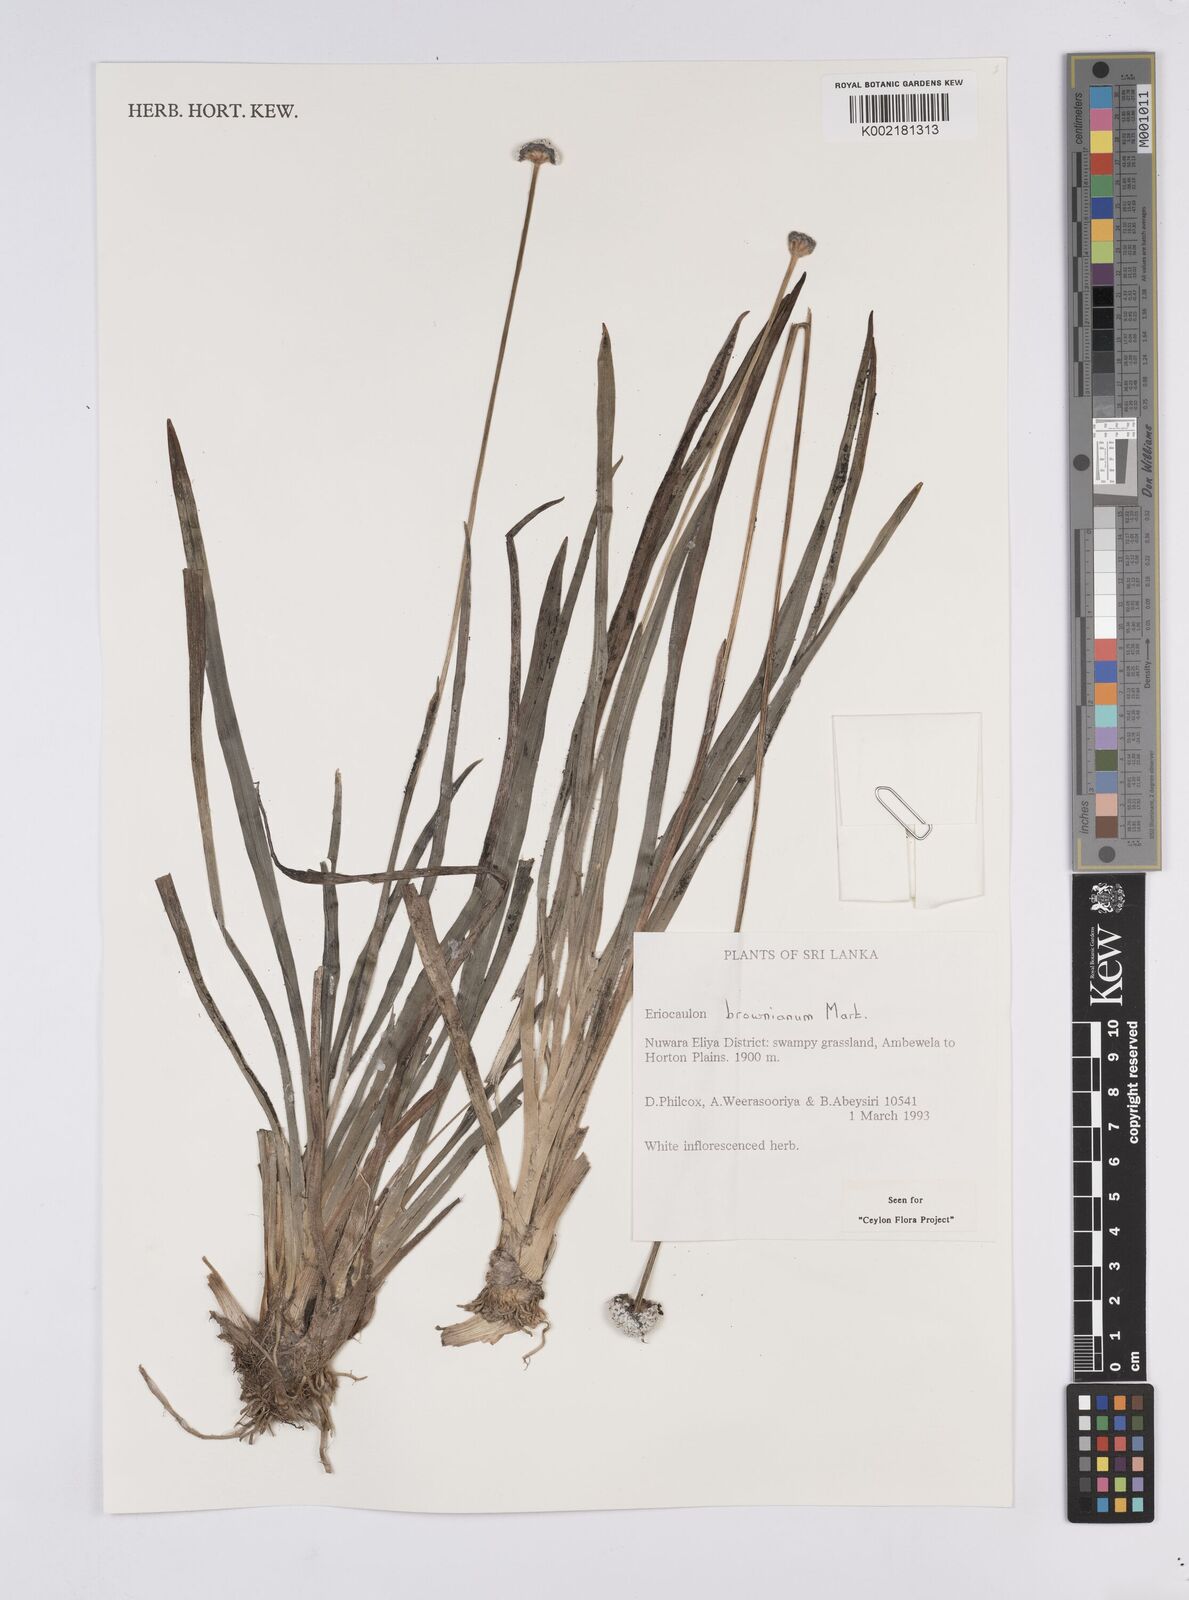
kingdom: Plantae
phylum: Tracheophyta
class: Liliopsida
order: Poales
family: Eriocaulaceae
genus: Eriocaulon
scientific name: Eriocaulon brownianum
